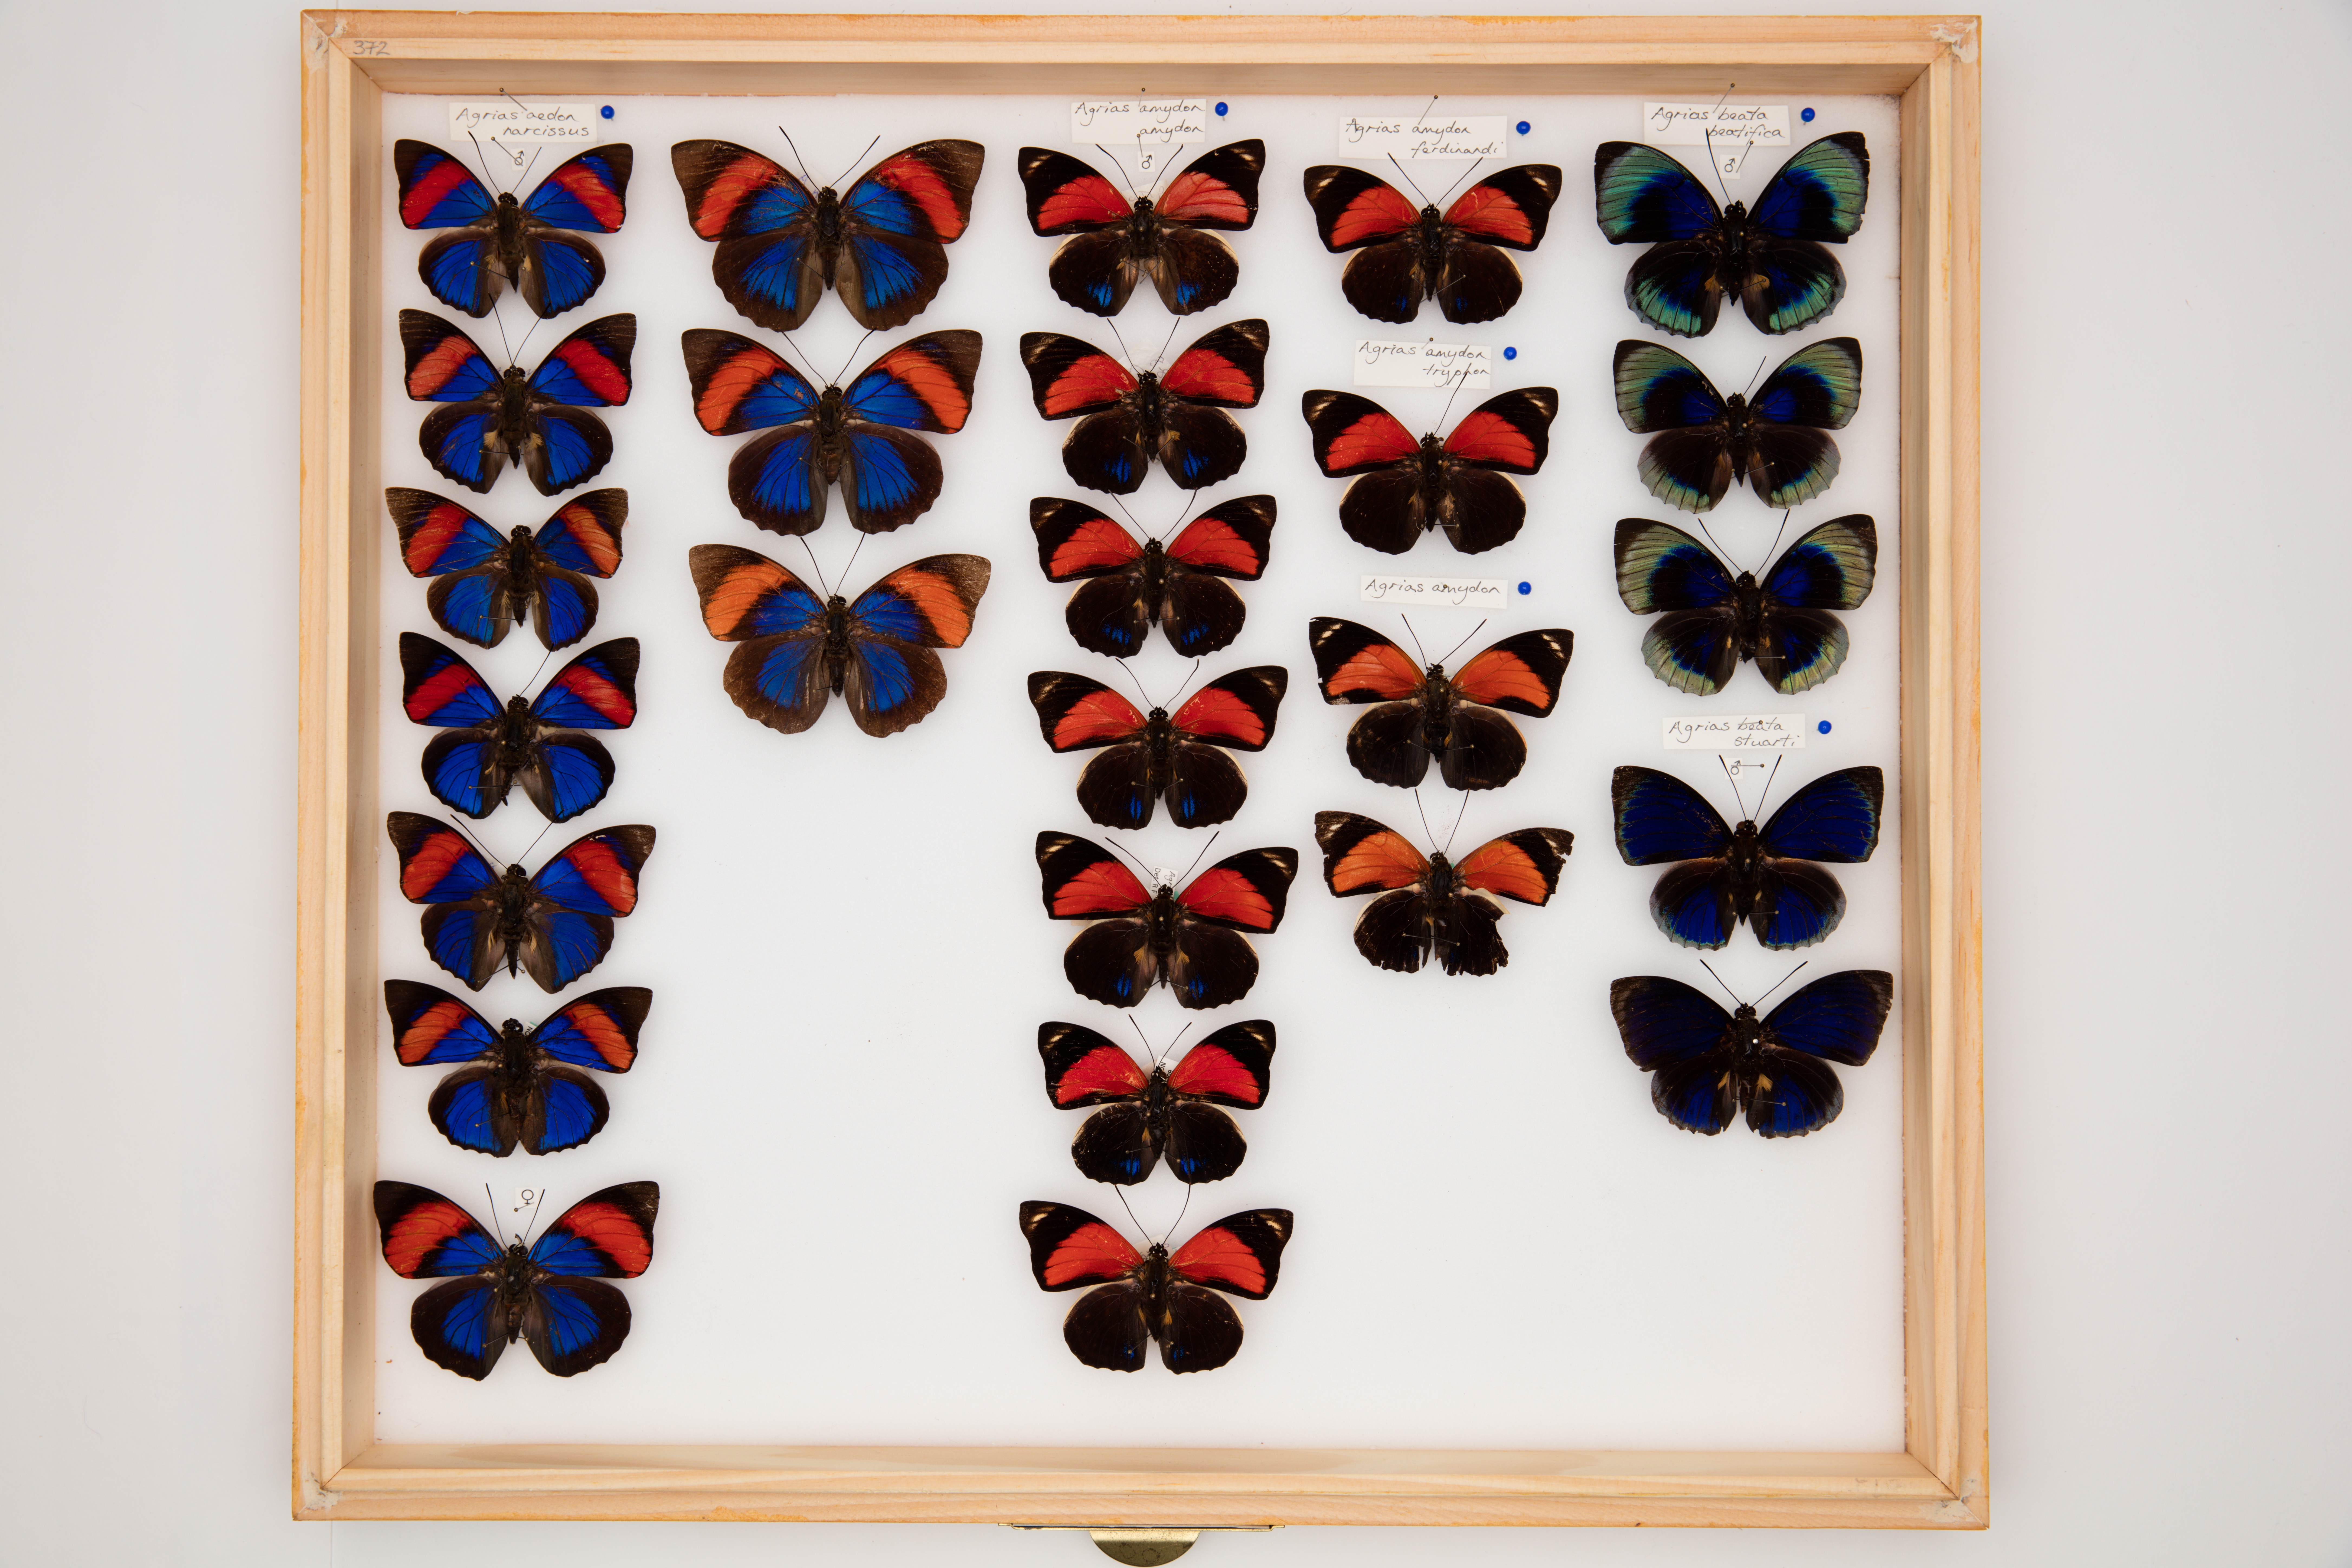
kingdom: Animalia
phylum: Arthropoda
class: Insecta
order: Lepidoptera
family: Nymphalidae
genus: Agrias
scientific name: Agrias amydon
